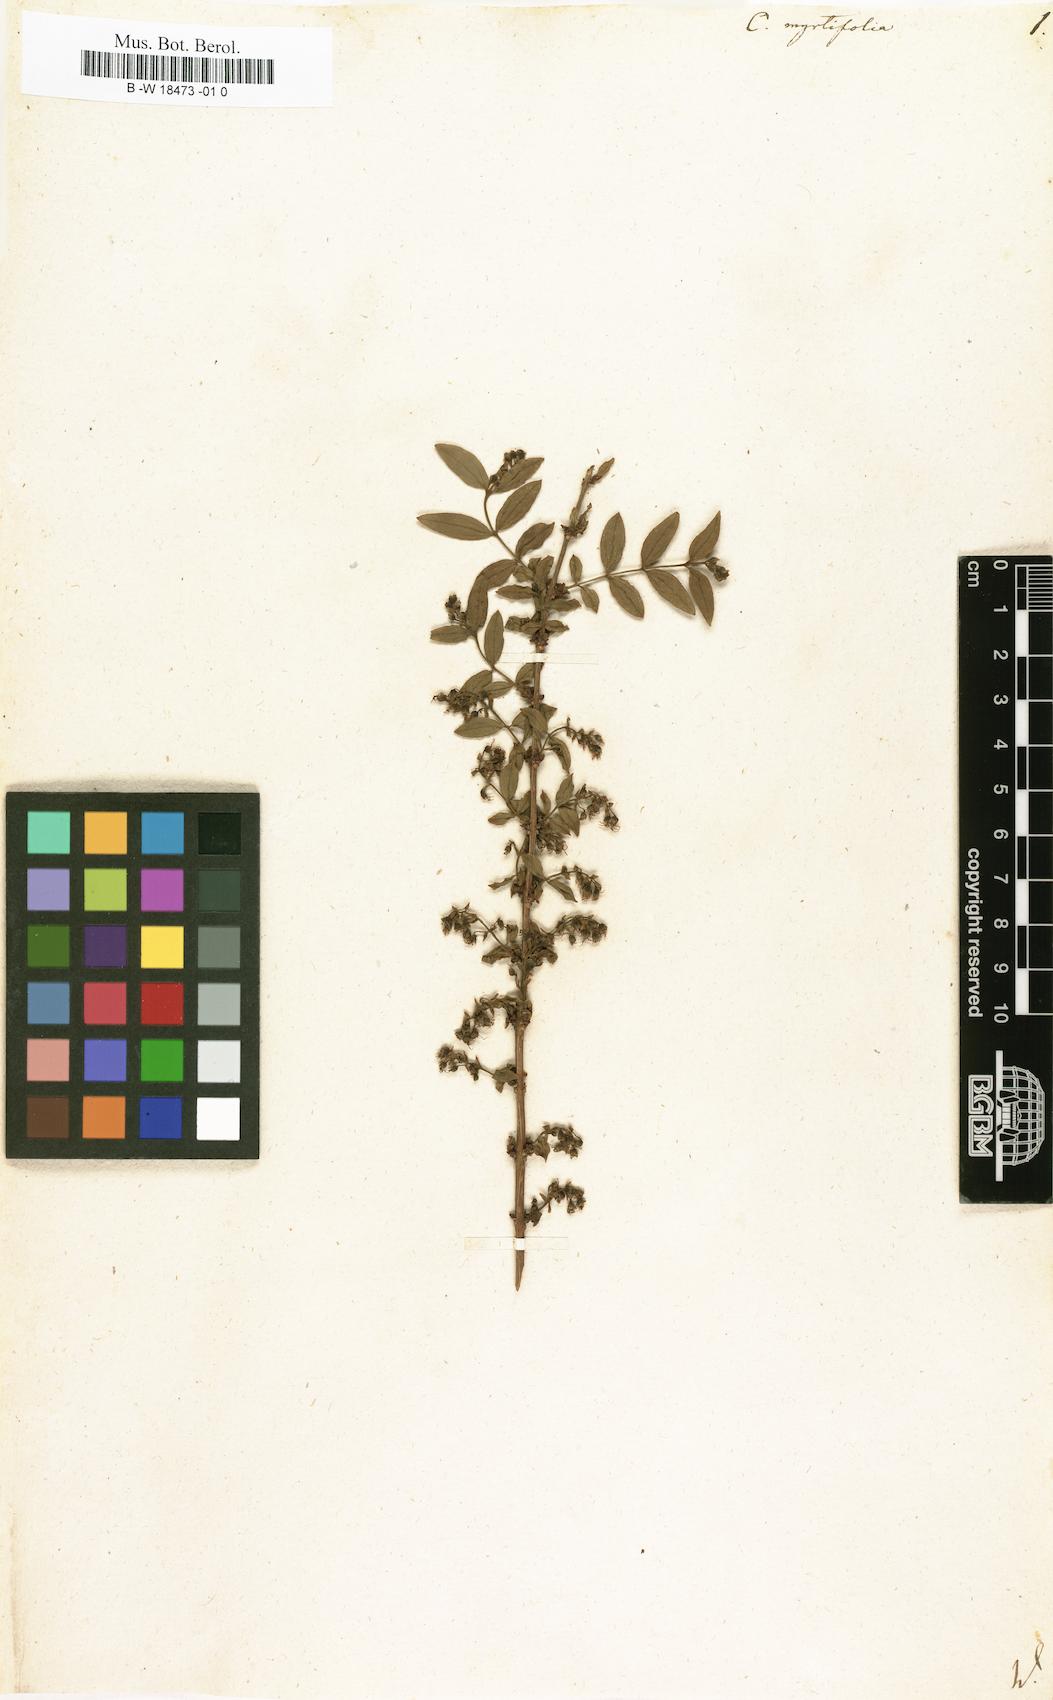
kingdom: Plantae
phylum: Tracheophyta
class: Magnoliopsida
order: Cucurbitales
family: Coriariaceae
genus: Coriaria
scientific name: Coriaria myrtifolia
